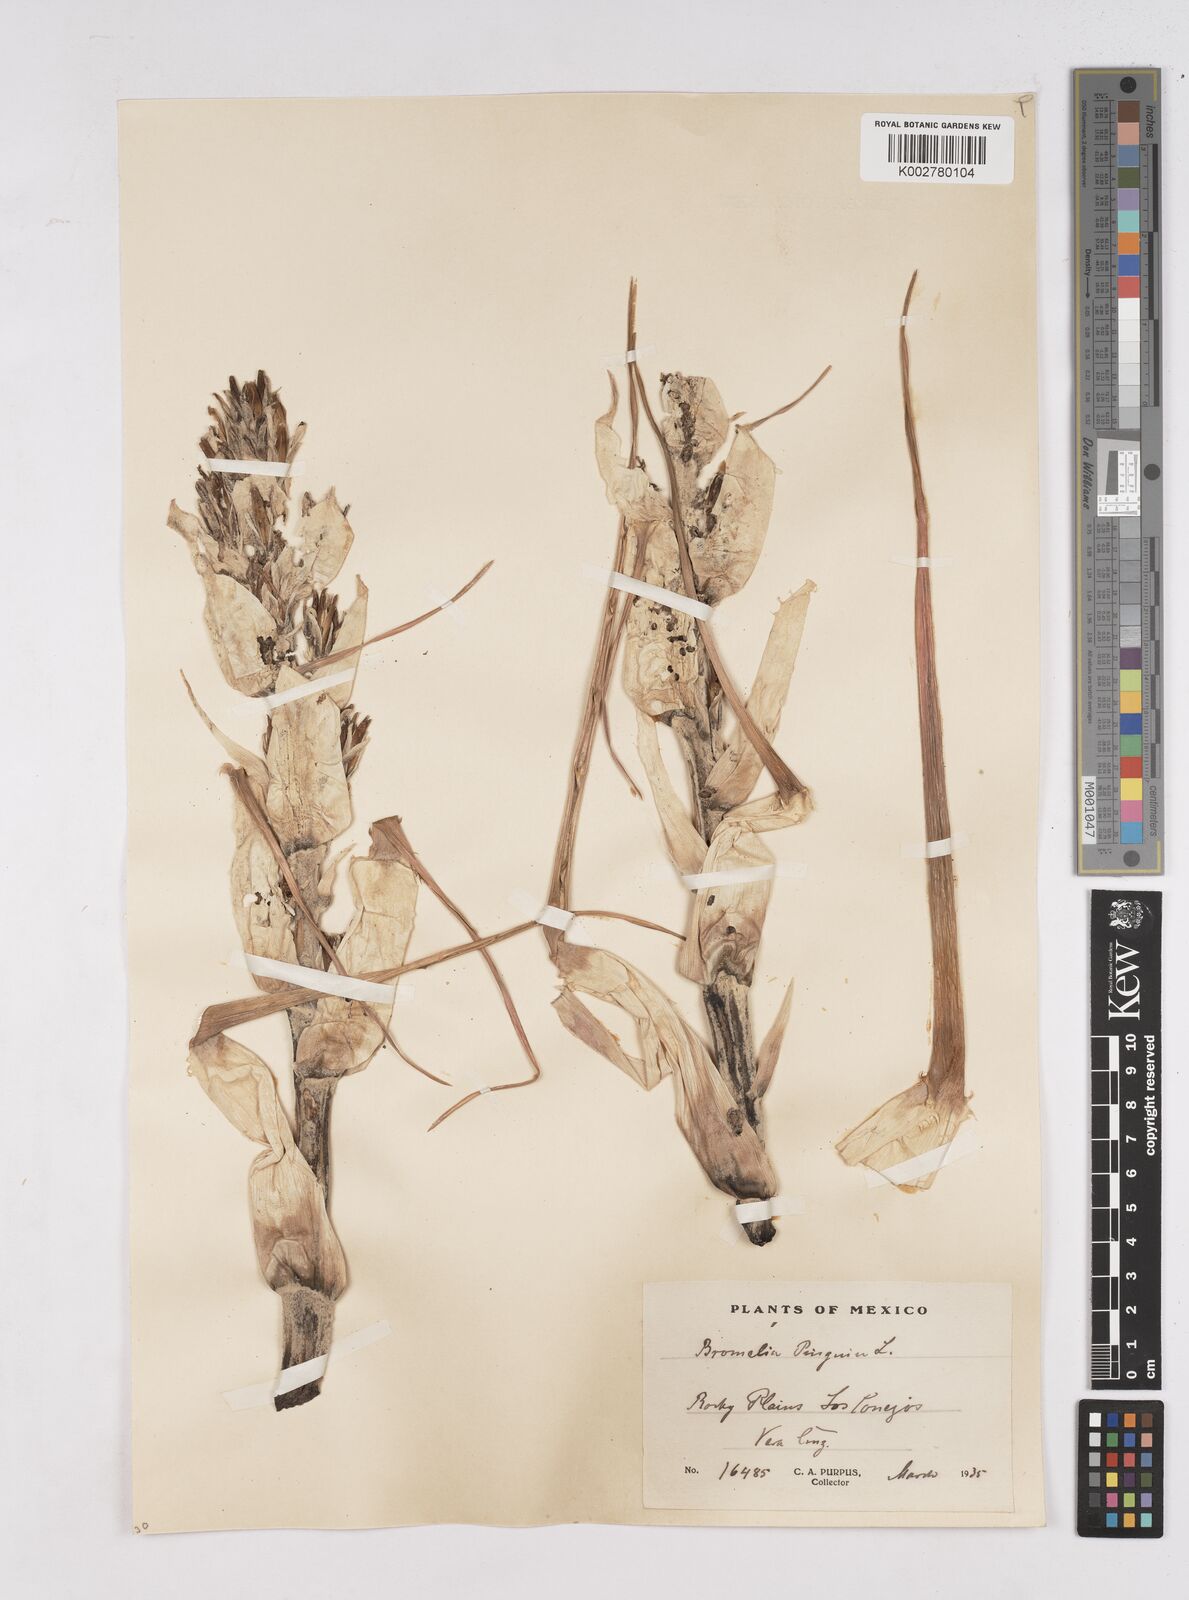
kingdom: Plantae
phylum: Tracheophyta
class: Liliopsida
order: Poales
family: Bromeliaceae
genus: Bromelia
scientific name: Bromelia pinguin
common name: Pinguin
